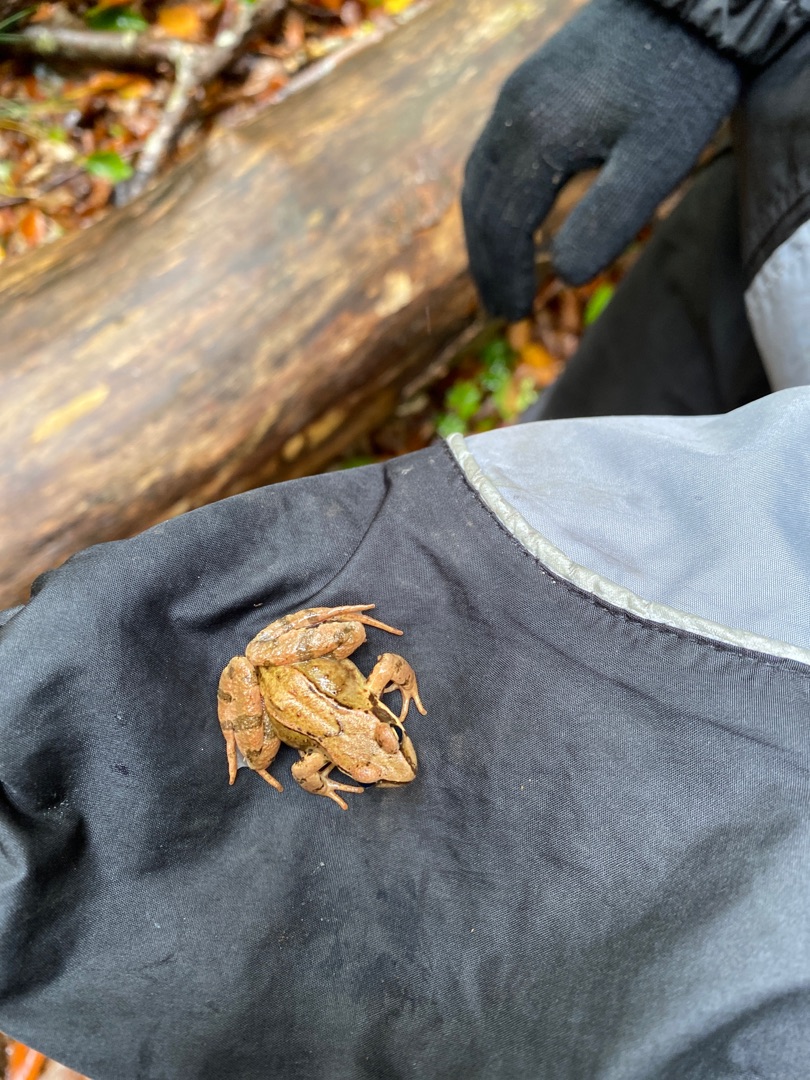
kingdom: Animalia
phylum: Chordata
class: Amphibia
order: Anura
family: Ranidae
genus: Rana
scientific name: Rana temporaria
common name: Butsnudet frø
